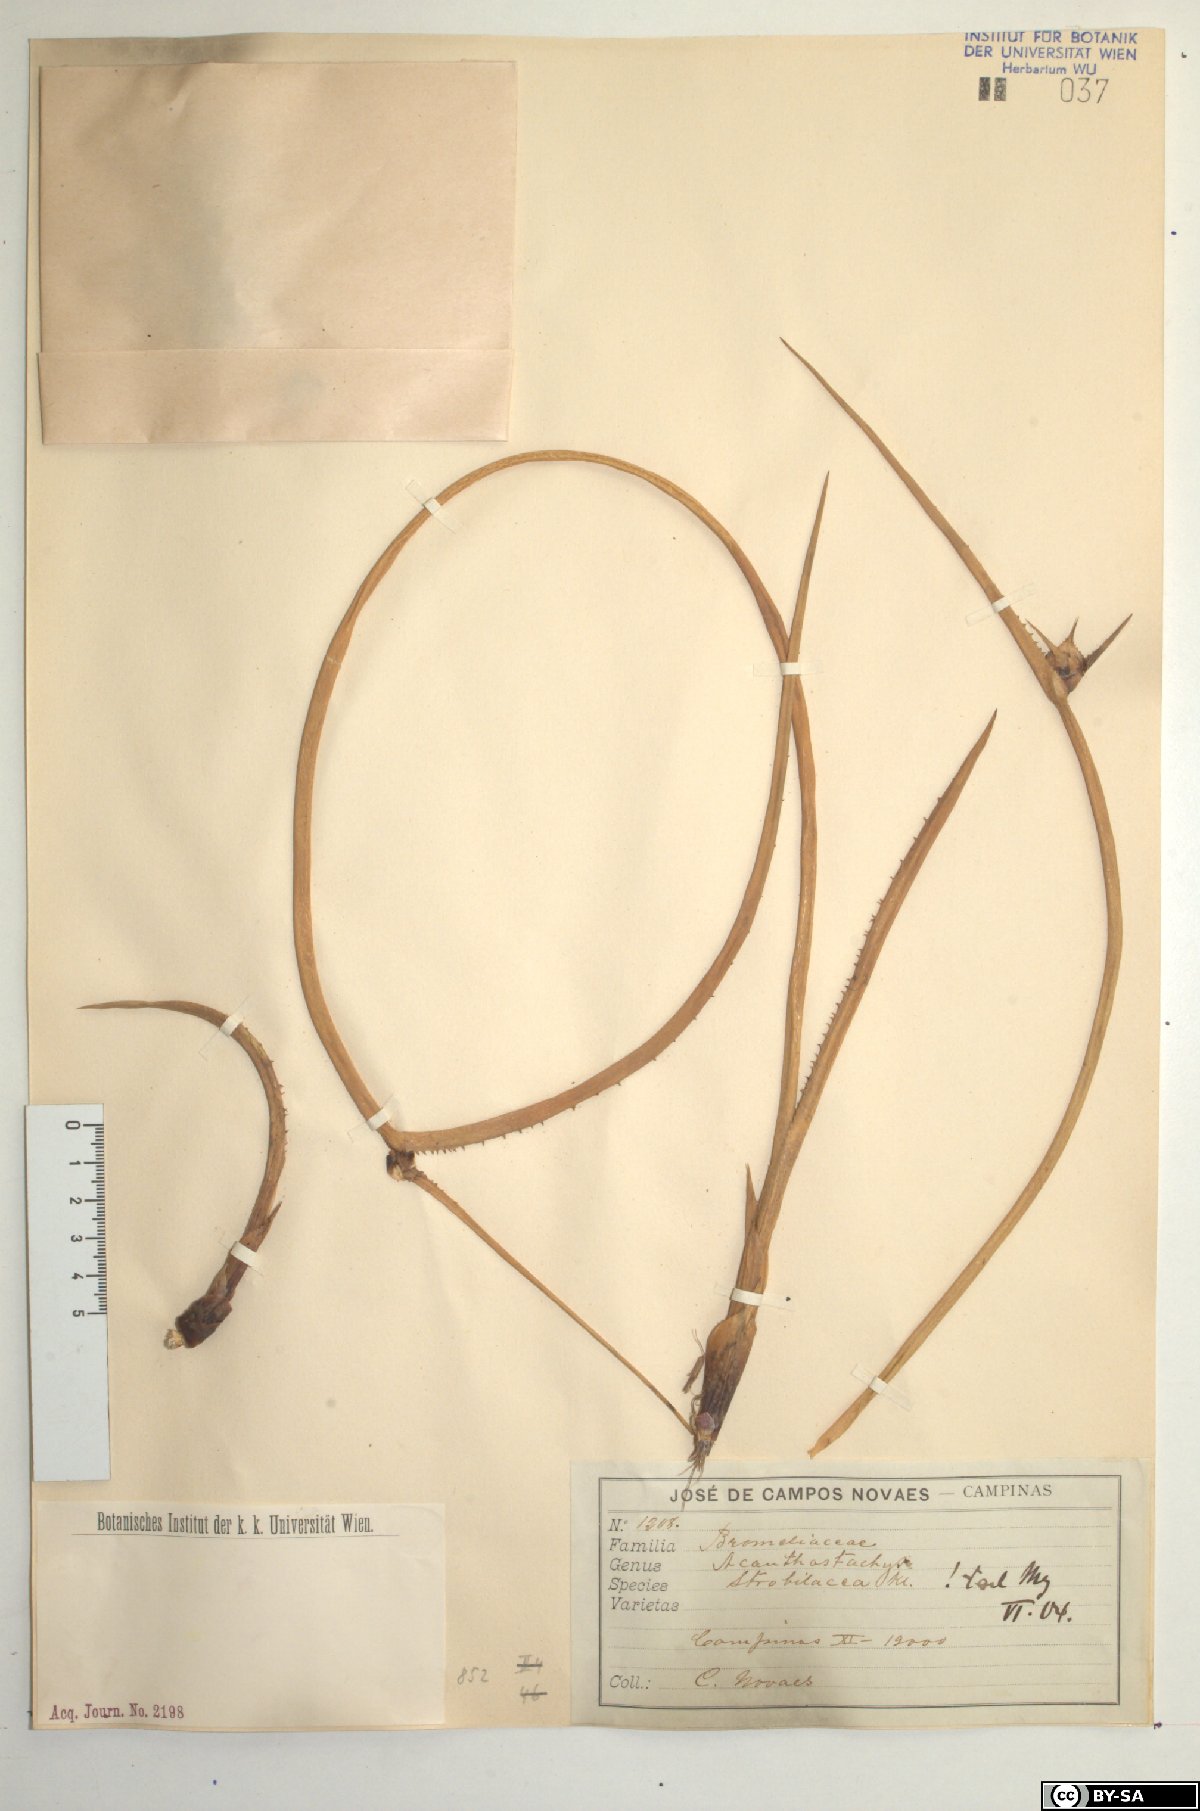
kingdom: Plantae
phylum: Tracheophyta
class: Liliopsida
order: Poales
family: Bromeliaceae
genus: Acanthostachys
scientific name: Acanthostachys strobilacea
